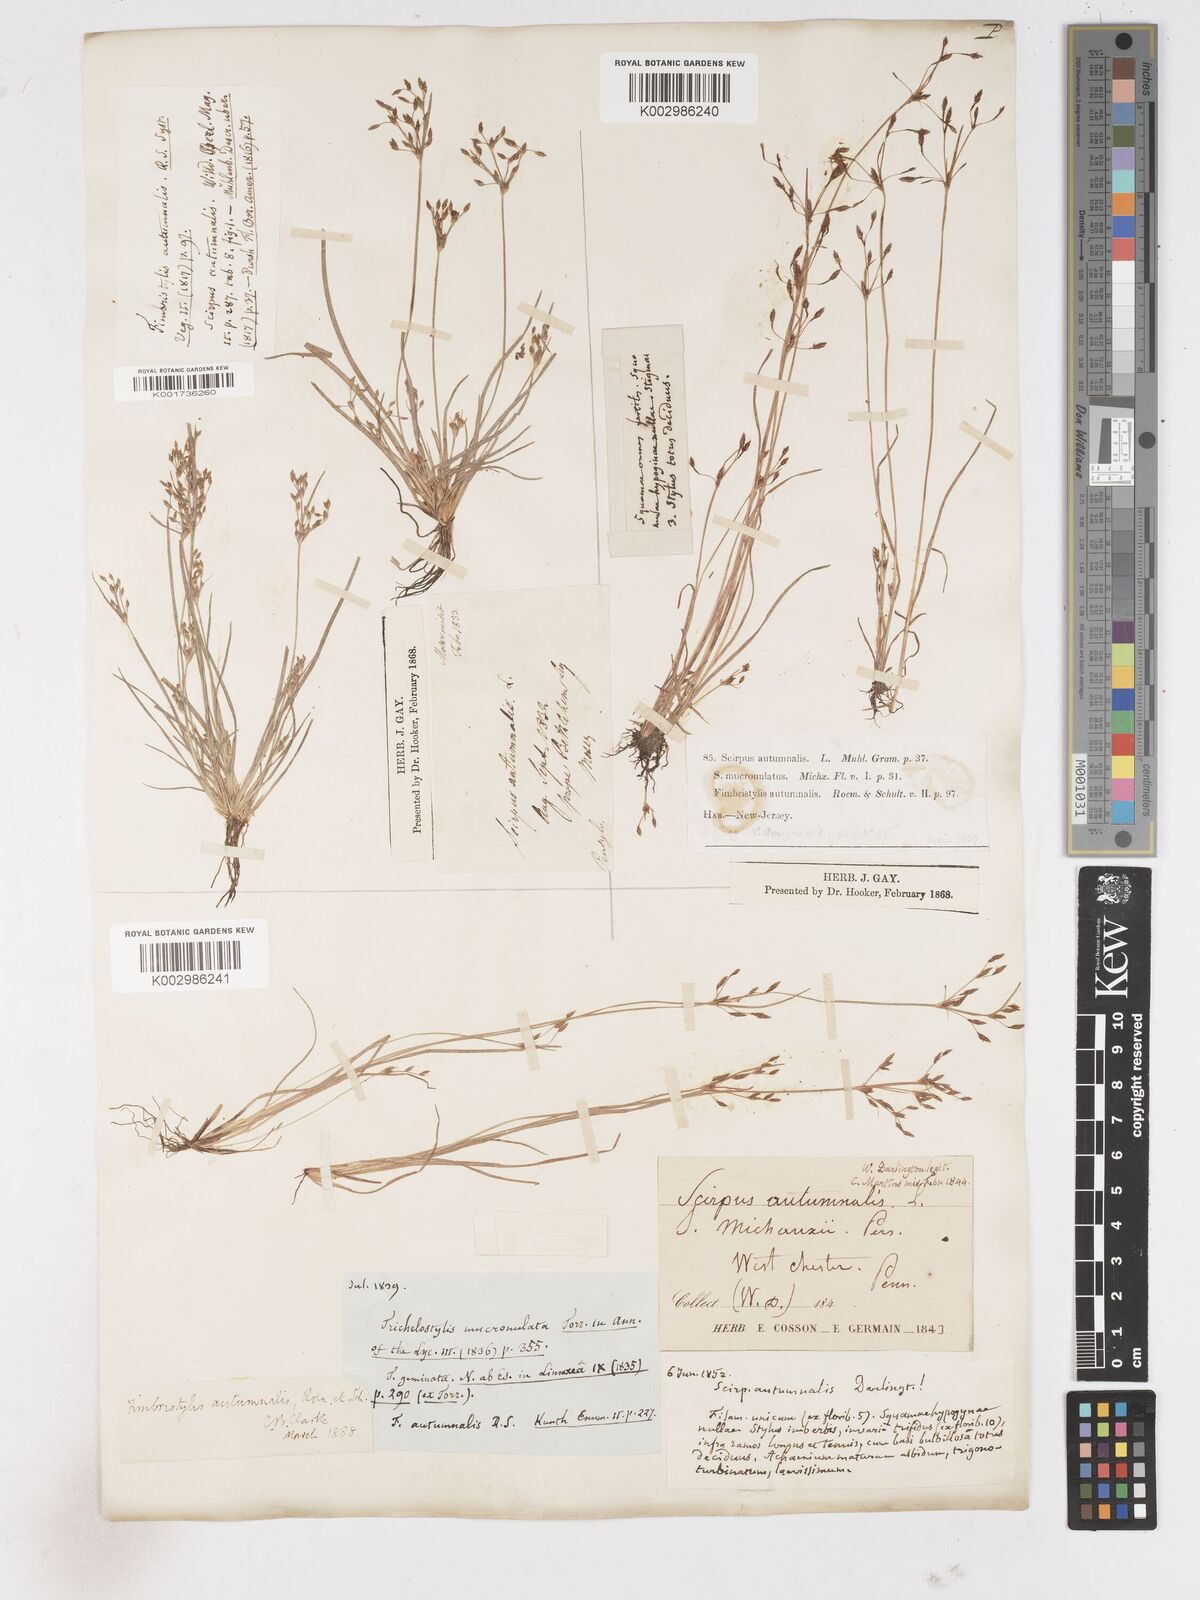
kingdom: Plantae
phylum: Tracheophyta
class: Liliopsida
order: Poales
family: Cyperaceae
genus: Fimbristylis
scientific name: Fimbristylis autumnalis
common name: Slender fimbristylis
